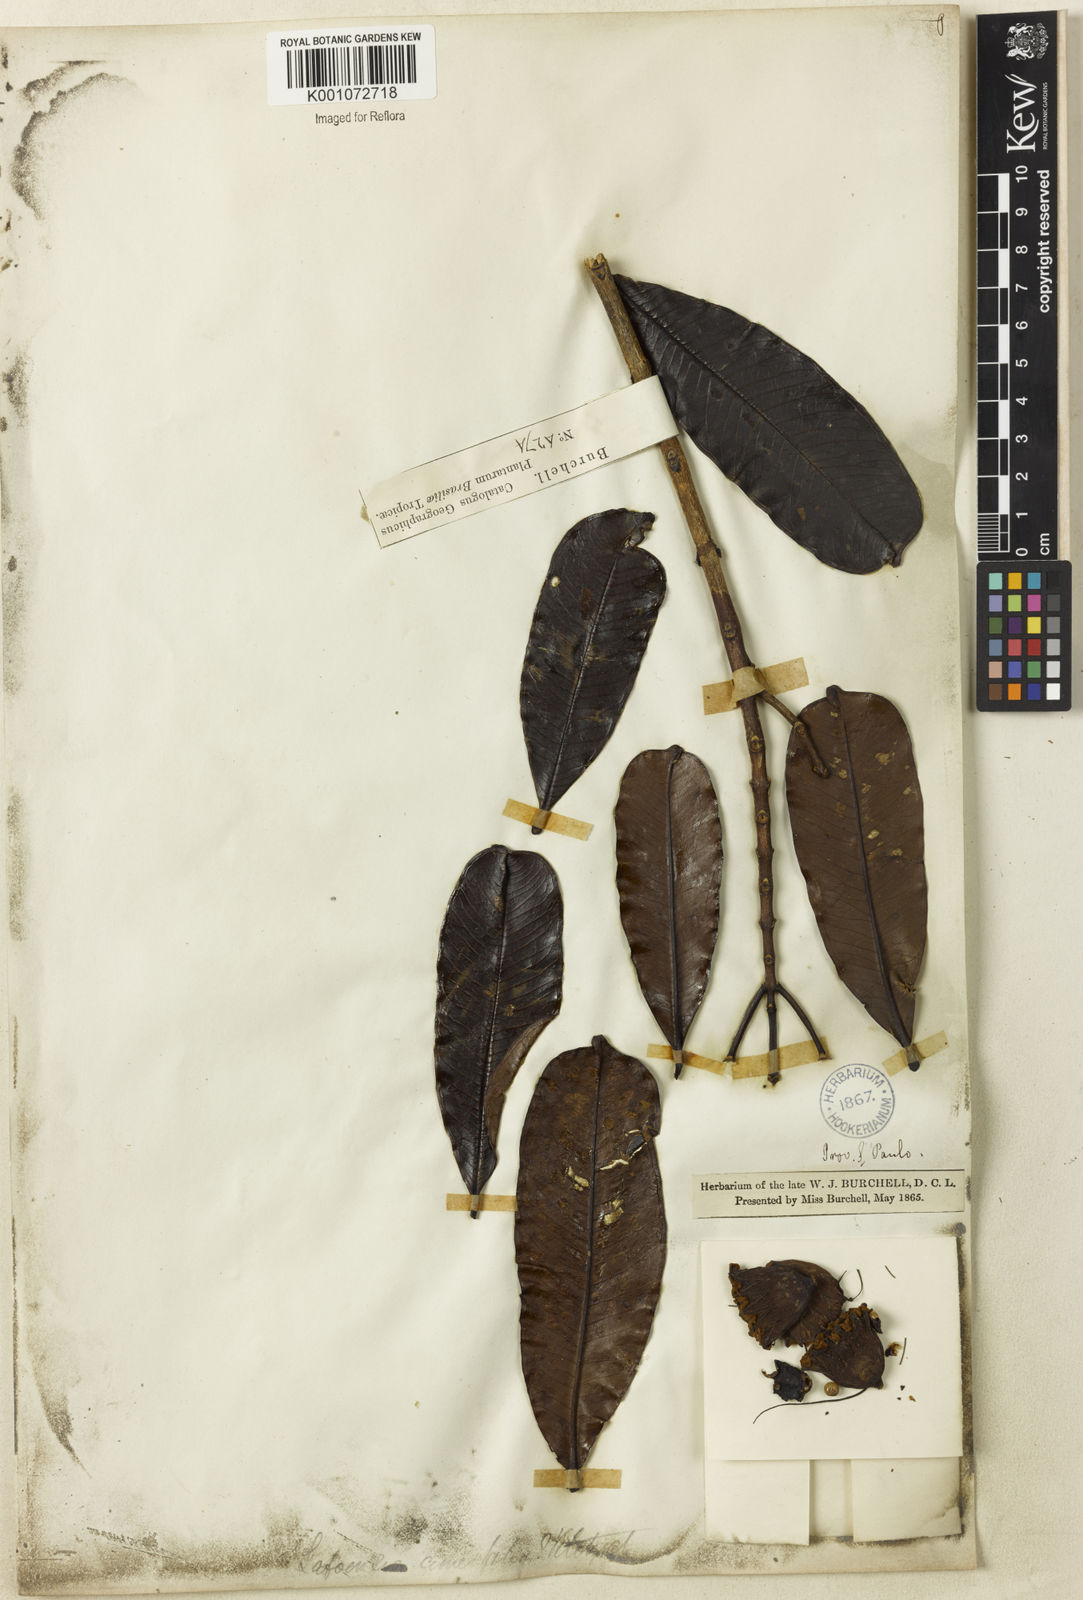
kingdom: Plantae
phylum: Tracheophyta
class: Magnoliopsida
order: Myrtales
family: Lythraceae
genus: Lafoensia
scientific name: Lafoensia pacari
